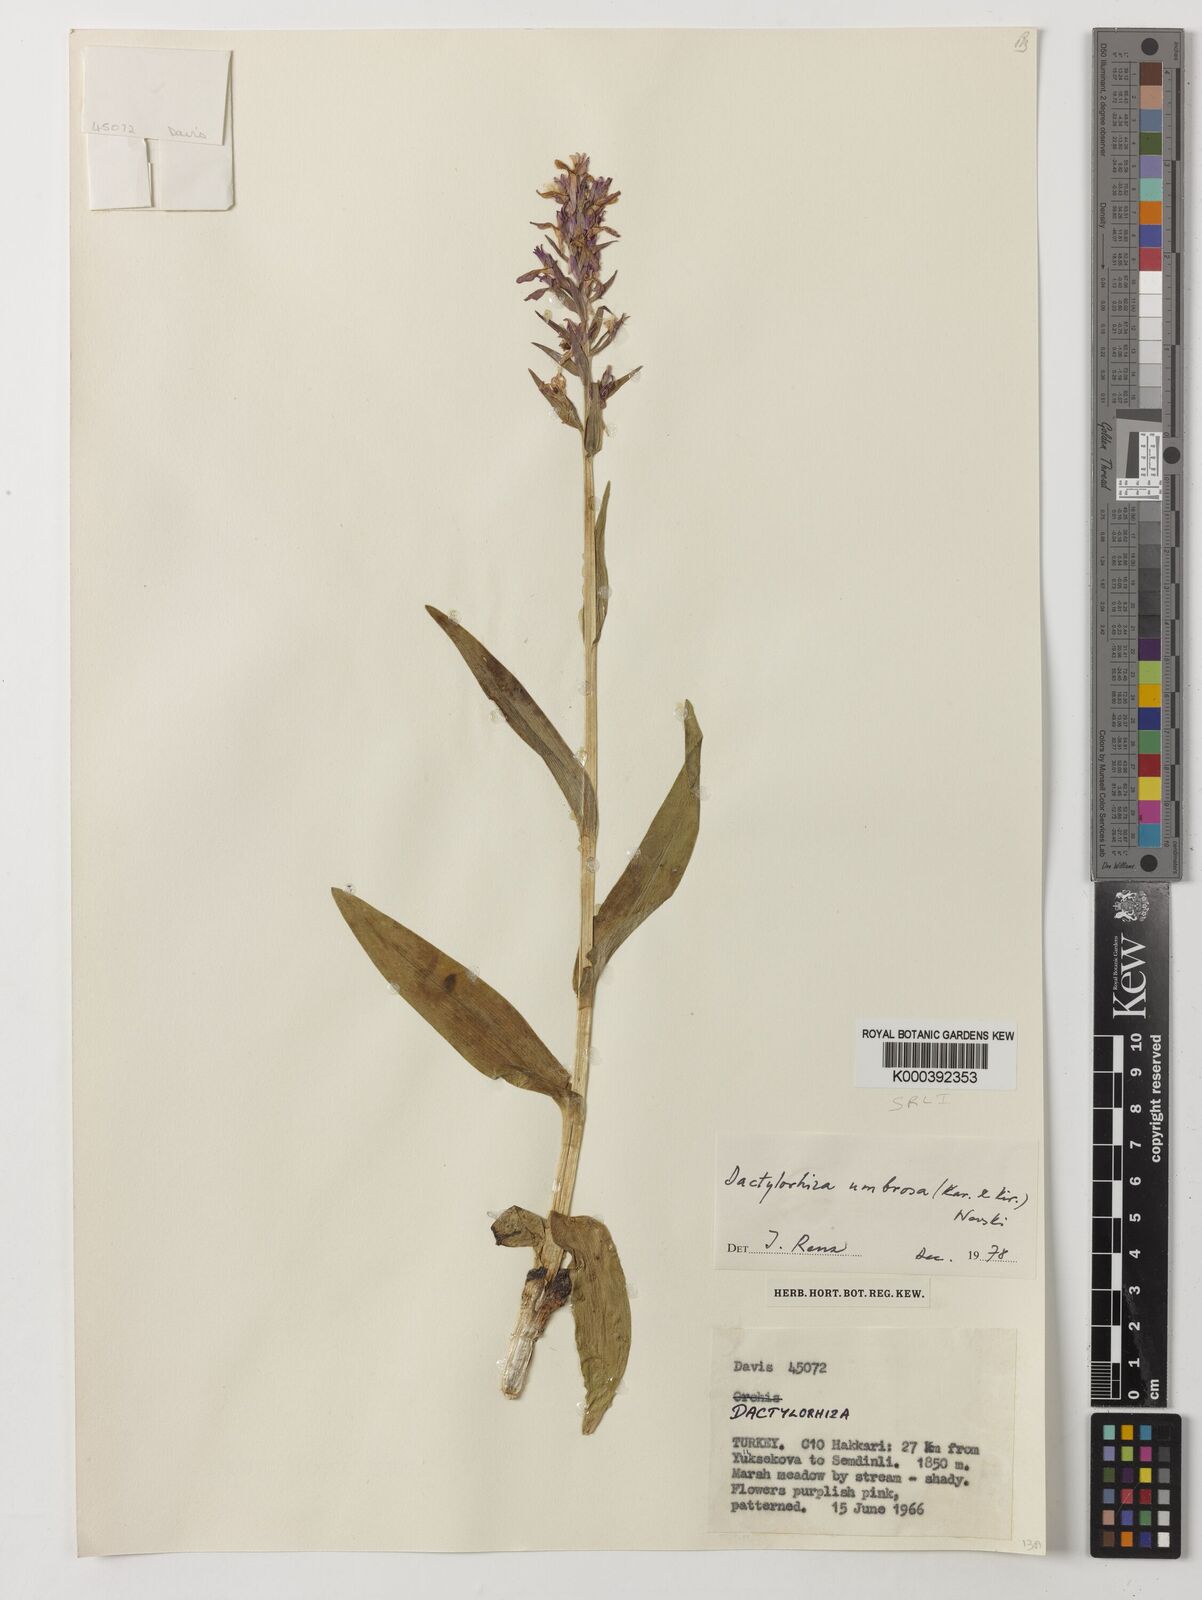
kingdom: Plantae
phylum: Tracheophyta
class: Liliopsida
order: Asparagales
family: Orchidaceae
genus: Dactylorhiza
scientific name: Dactylorhiza
